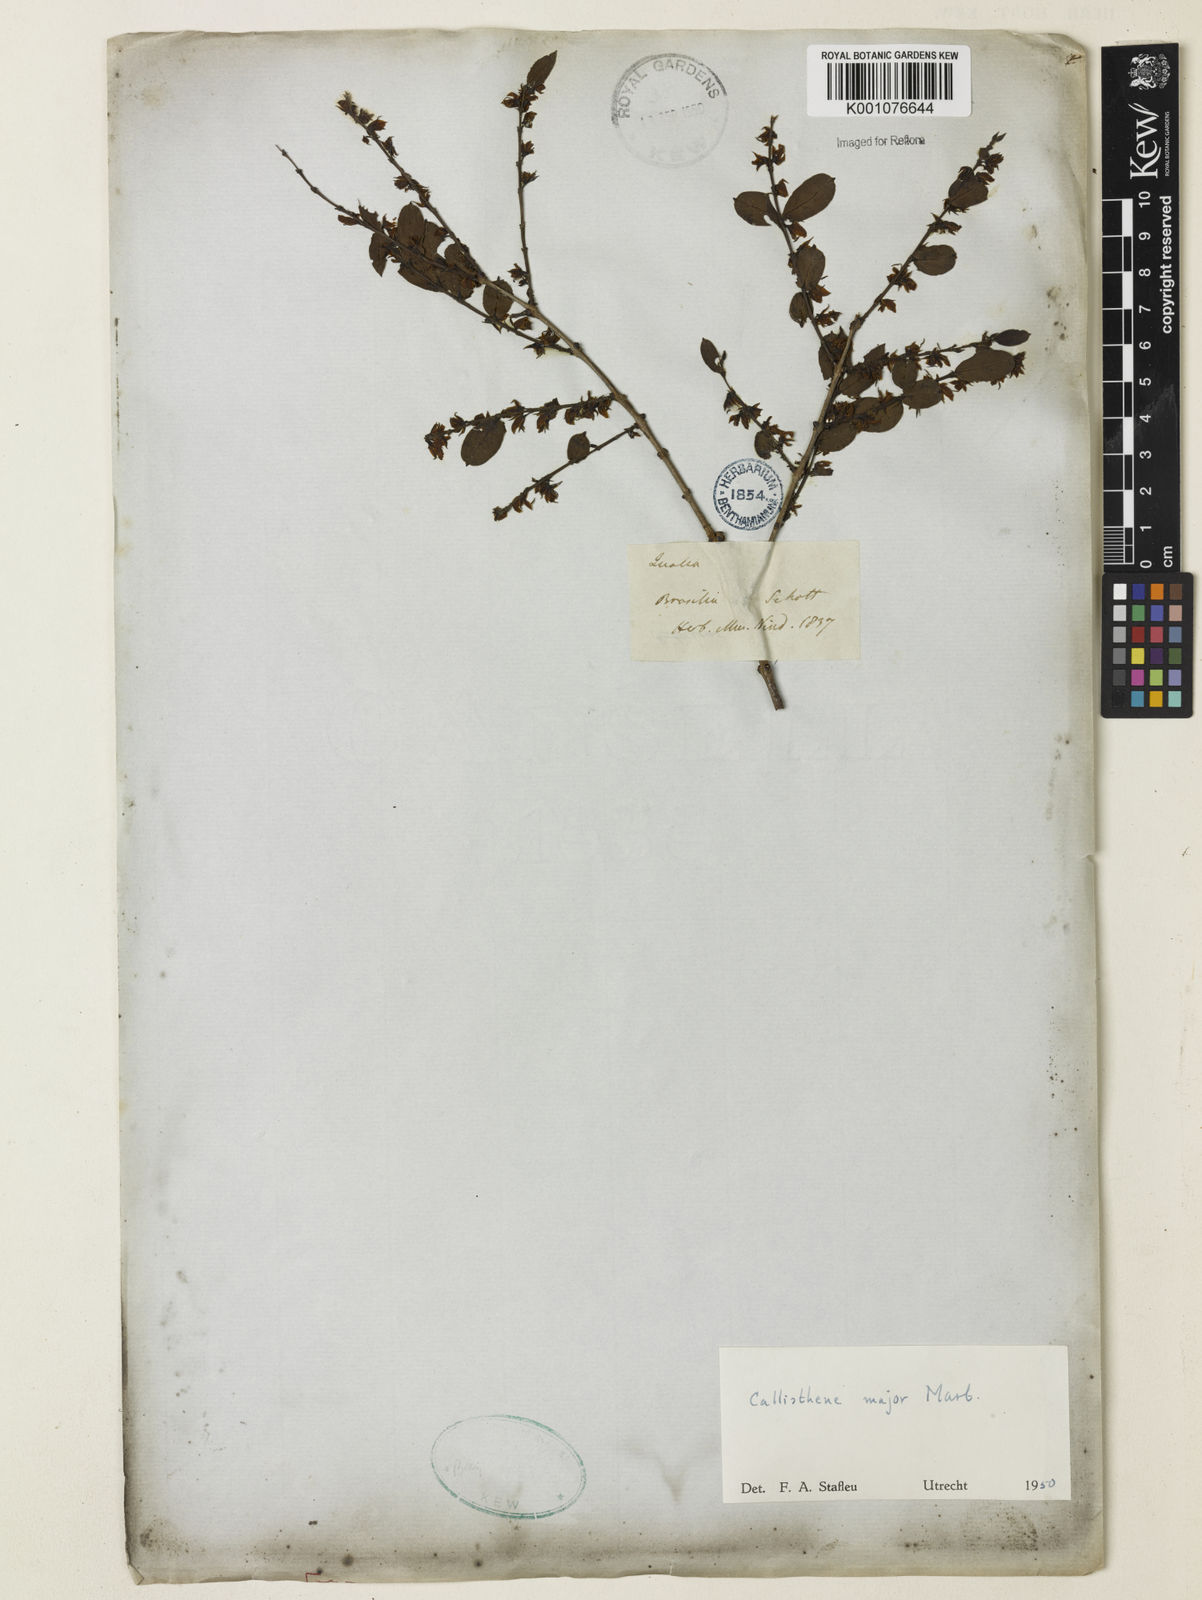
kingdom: Plantae
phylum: Tracheophyta
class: Magnoliopsida
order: Myrtales
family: Vochysiaceae
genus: Callisthene
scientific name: Callisthene major
